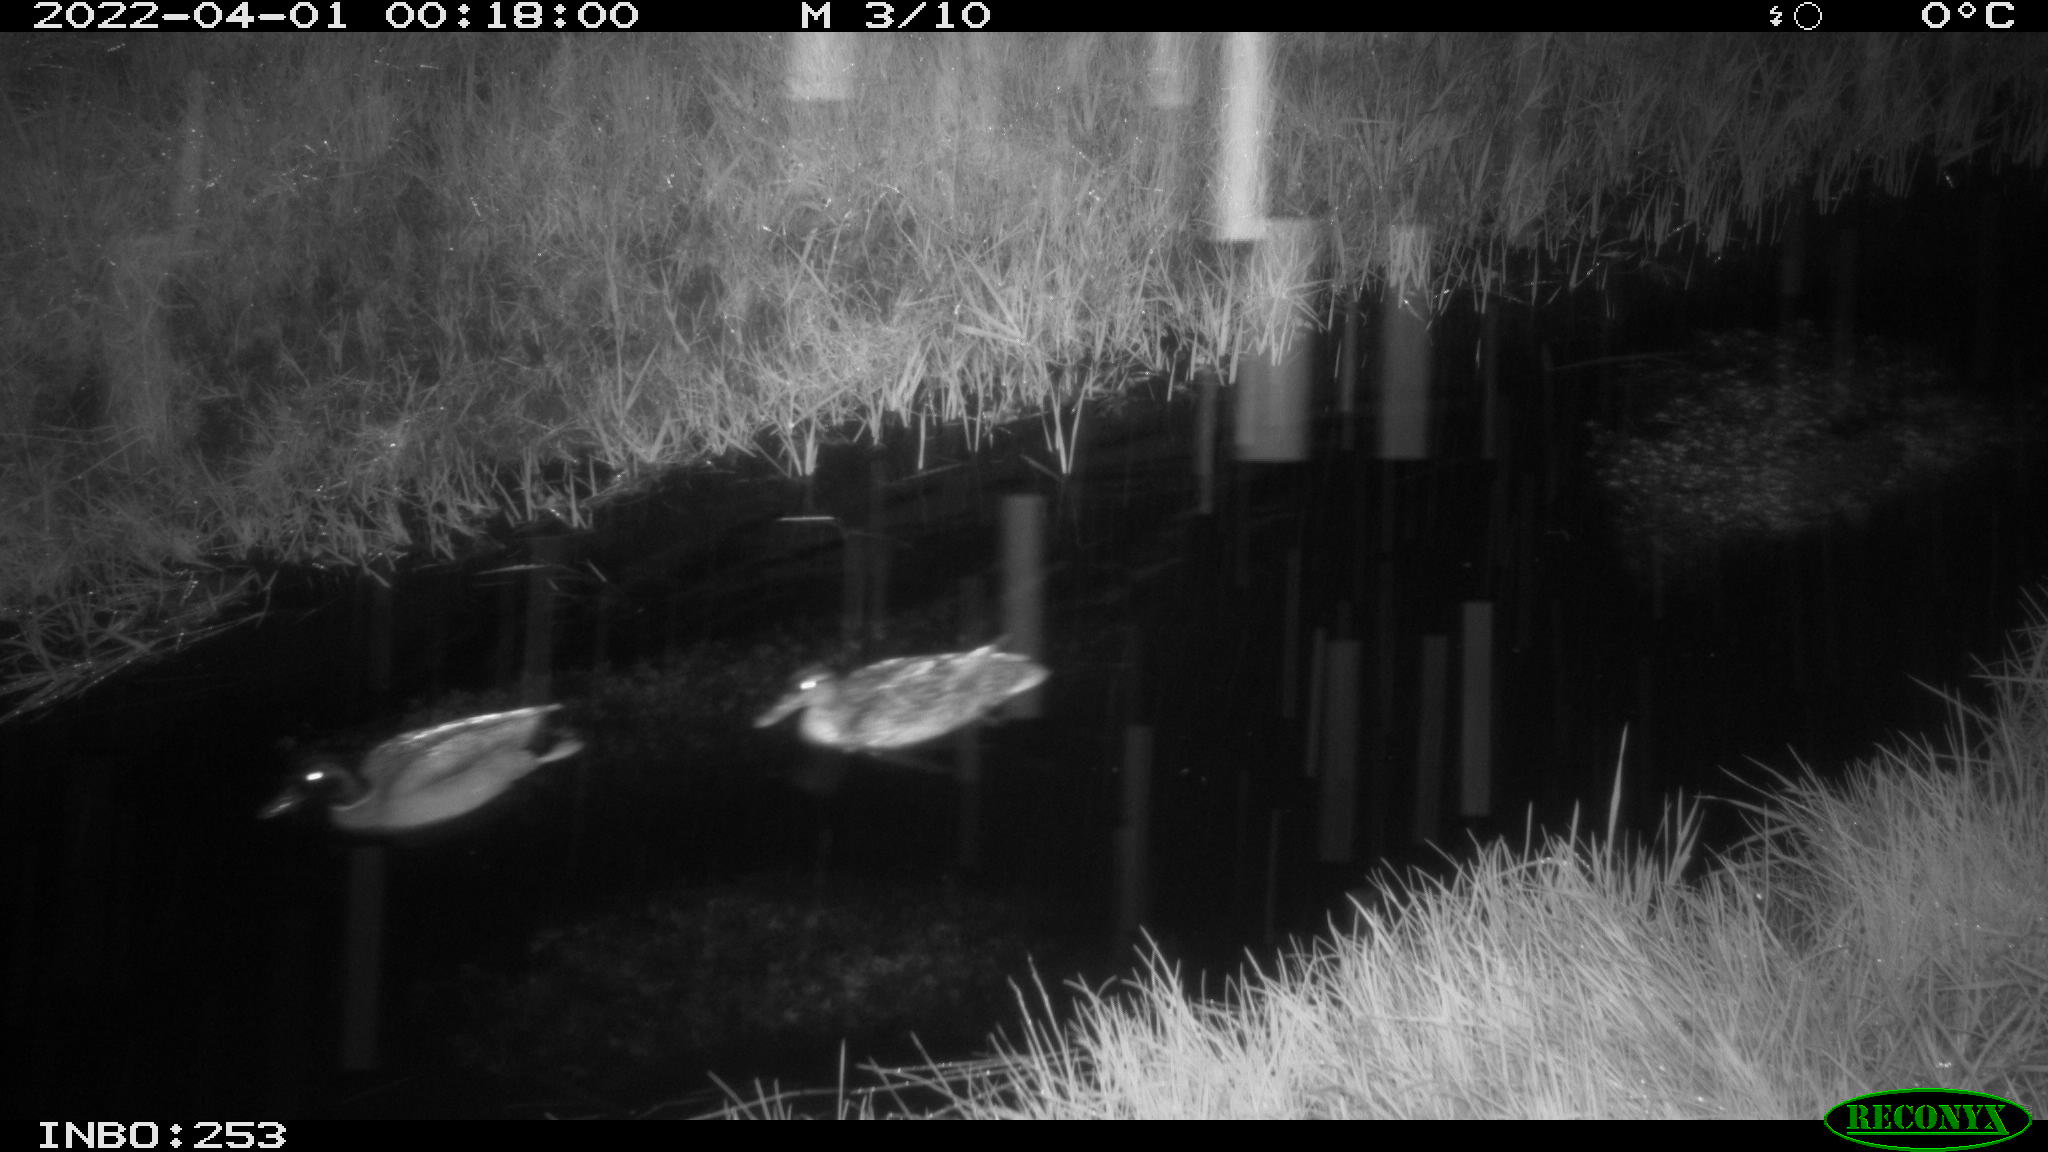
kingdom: Animalia
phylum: Chordata
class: Aves
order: Anseriformes
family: Anatidae
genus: Anas
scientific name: Anas platyrhynchos
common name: Mallard
